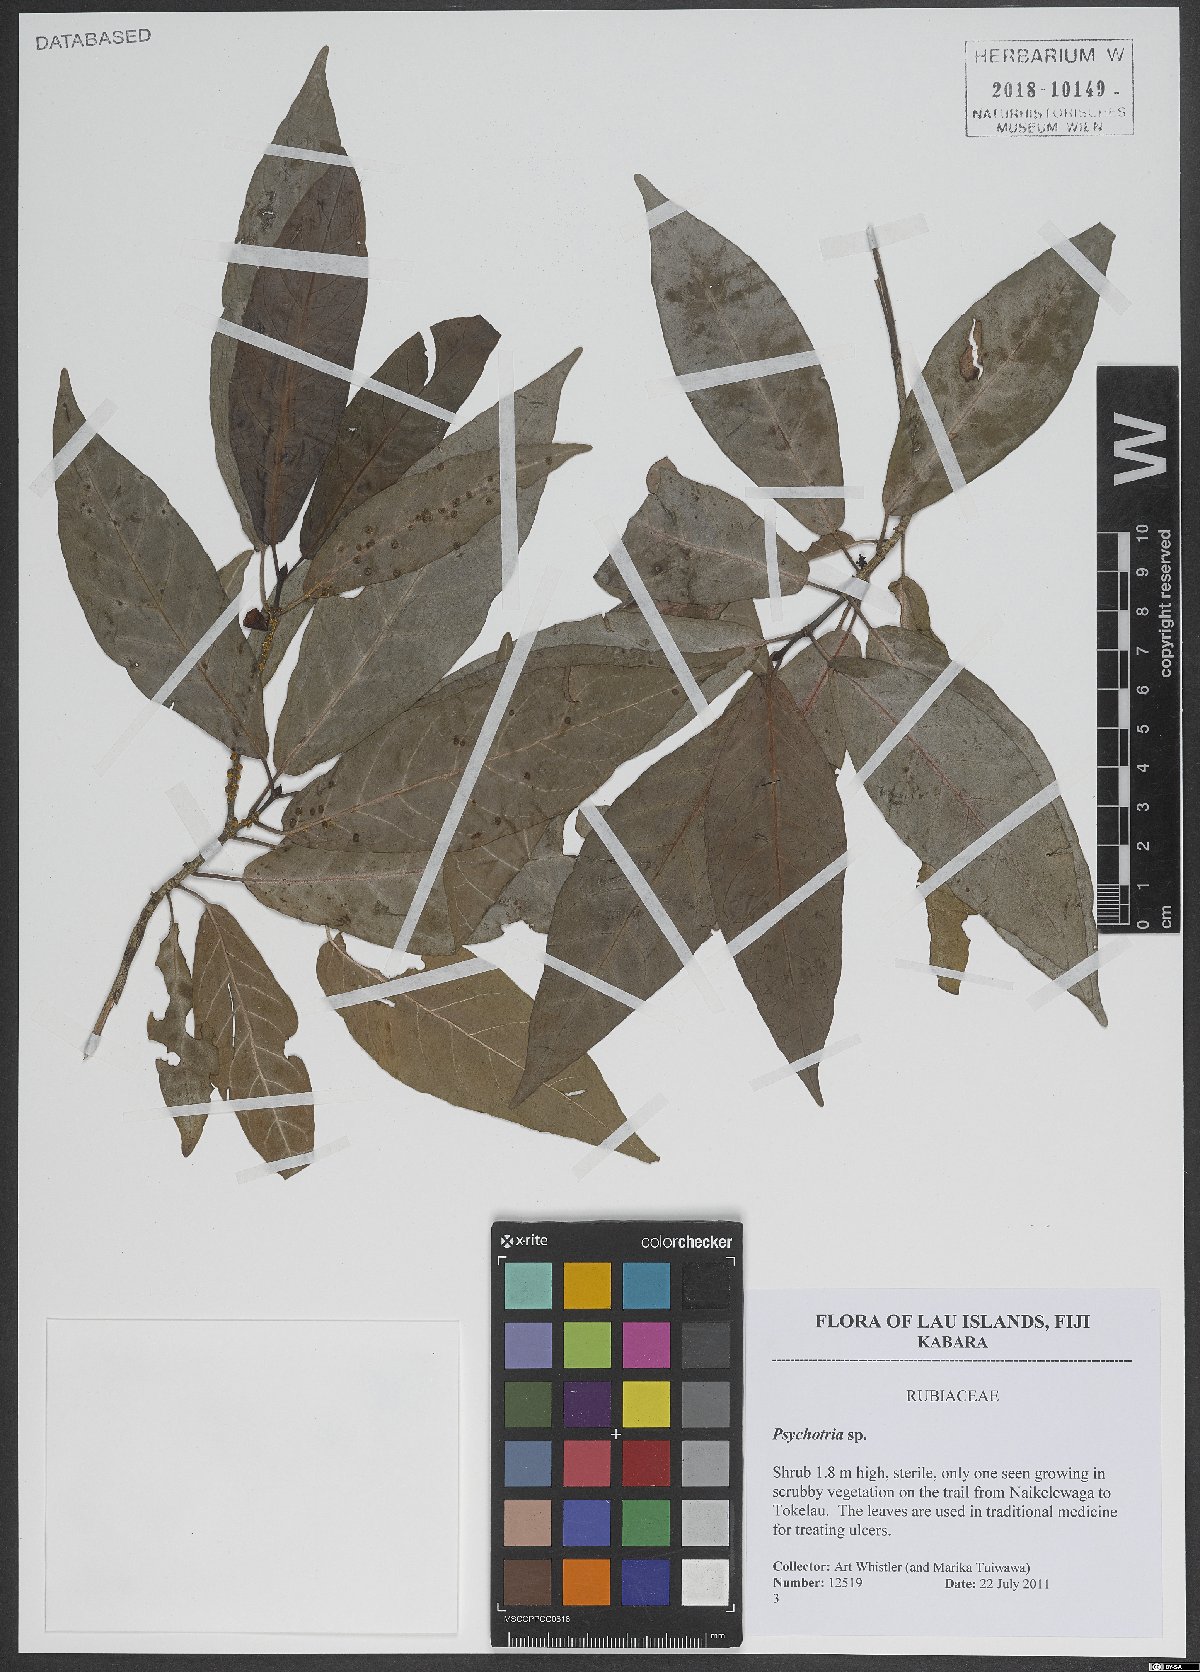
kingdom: Plantae
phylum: Tracheophyta
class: Magnoliopsida
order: Gentianales
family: Rubiaceae
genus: Psychotria
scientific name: Psychotria
